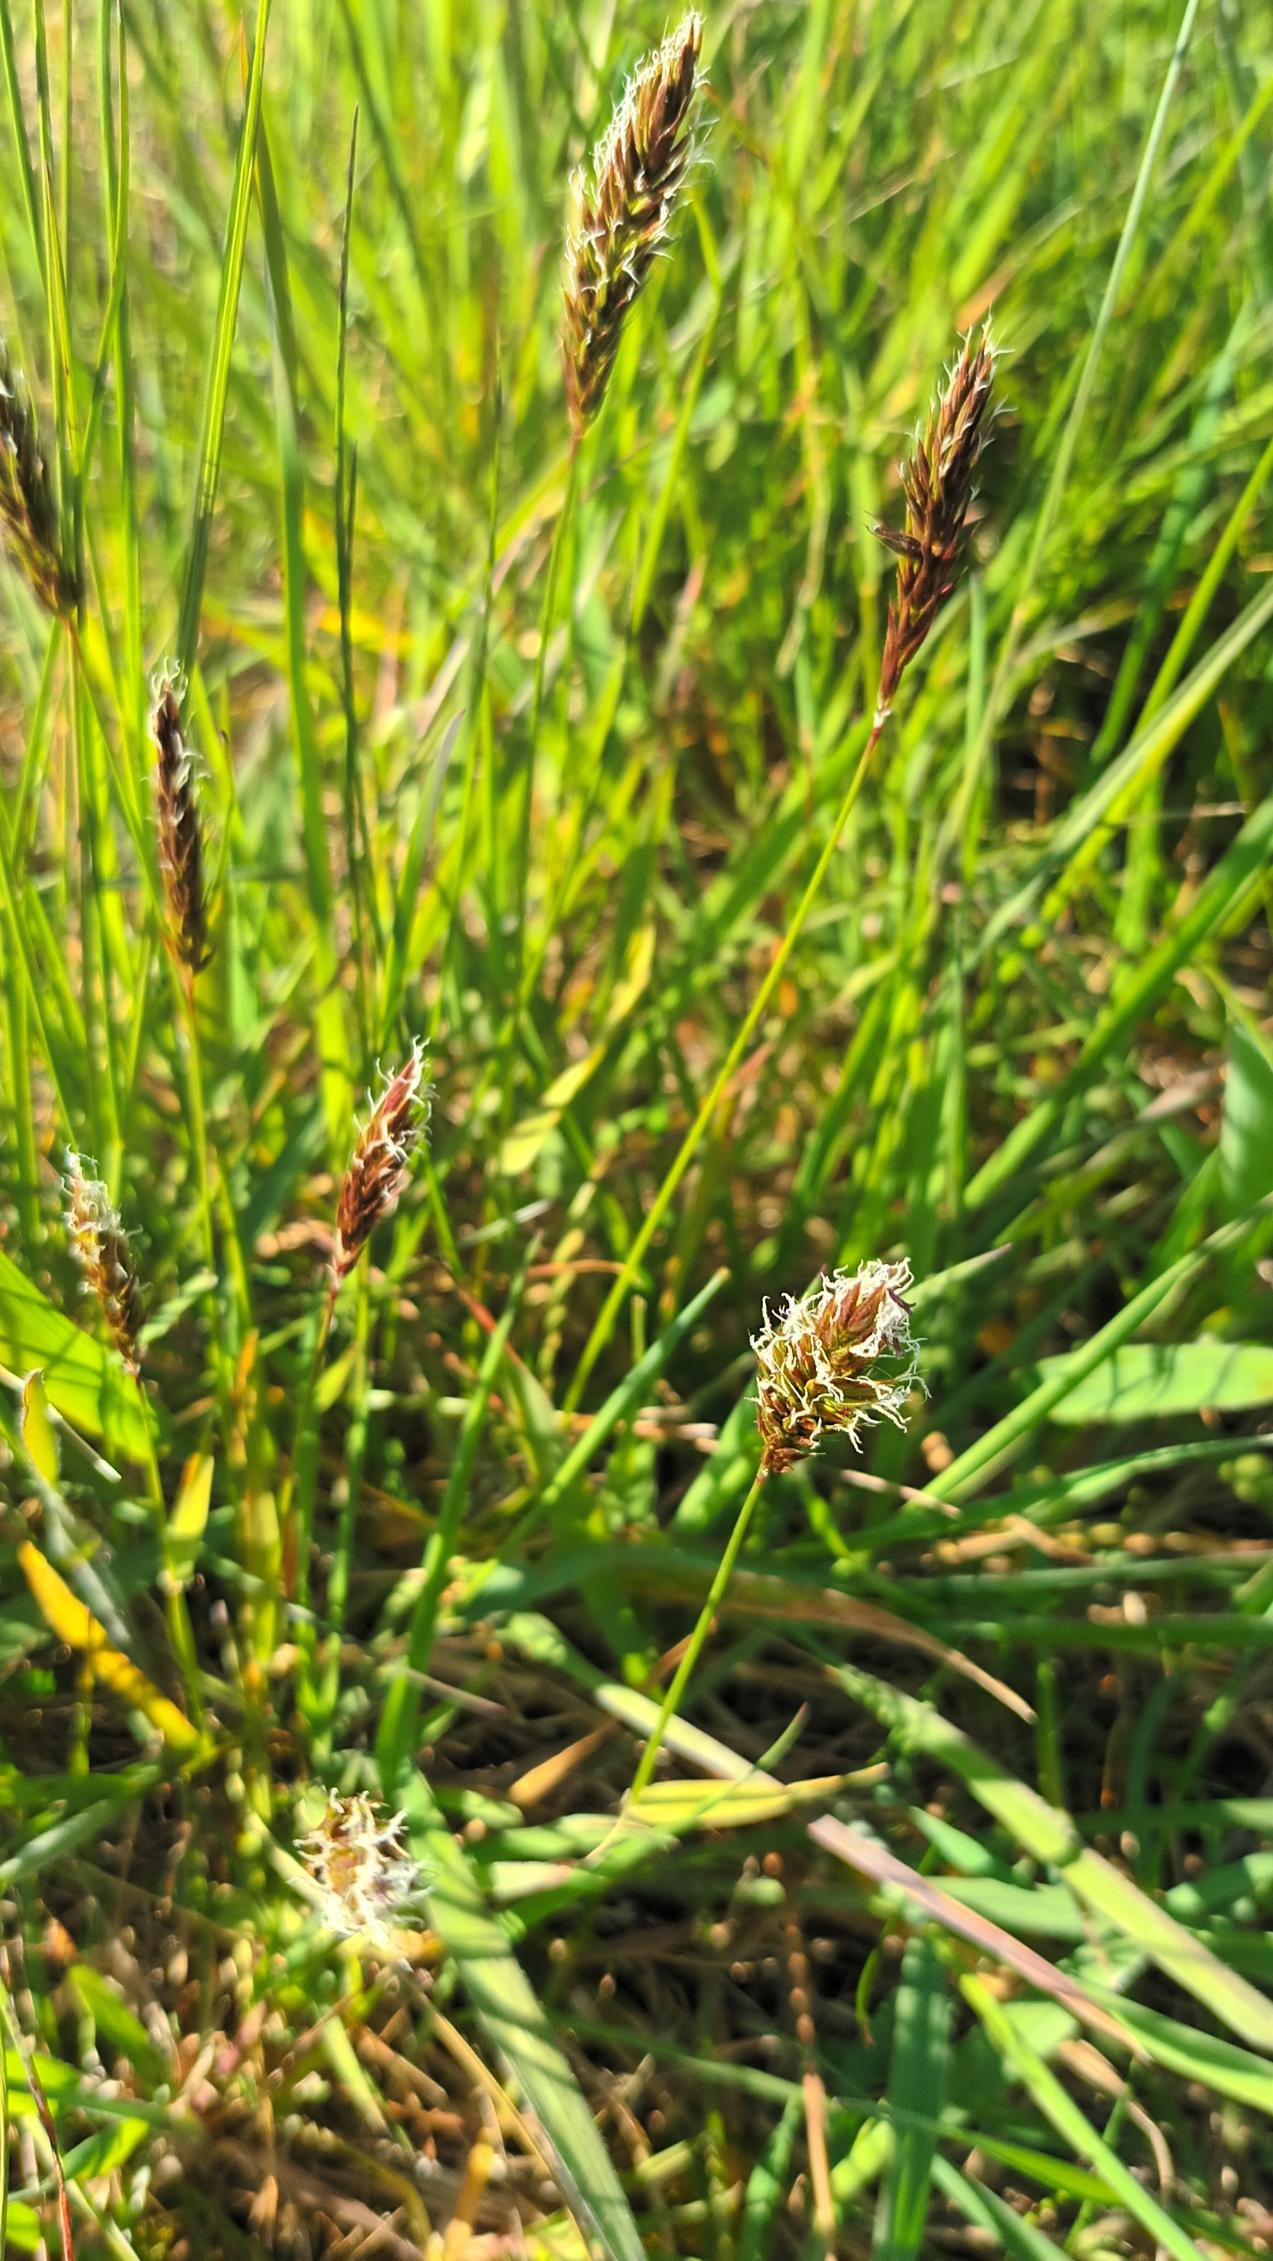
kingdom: Plantae
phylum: Tracheophyta
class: Liliopsida
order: Poales
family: Poaceae
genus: Anthoxanthum
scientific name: Anthoxanthum odoratum
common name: Vellugtende gulaks
